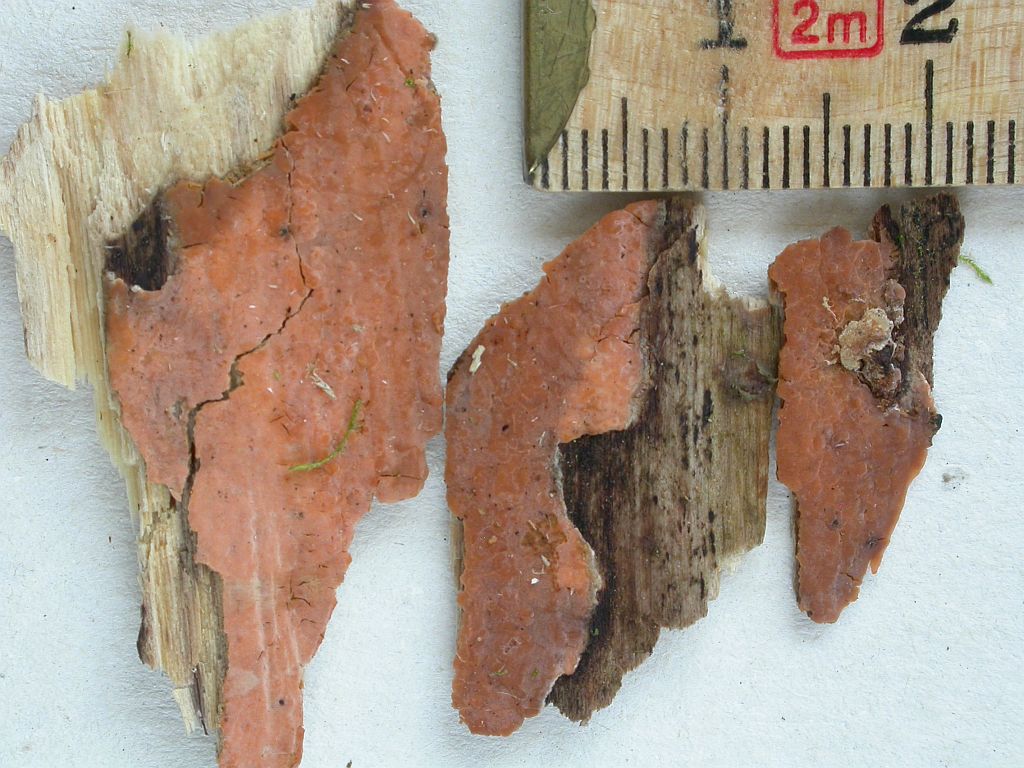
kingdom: Fungi
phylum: Basidiomycota
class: Agaricomycetes
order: Russulales
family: Peniophoraceae
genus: Peniophora
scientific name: Peniophora incarnata
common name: laksefarvet voksskind
